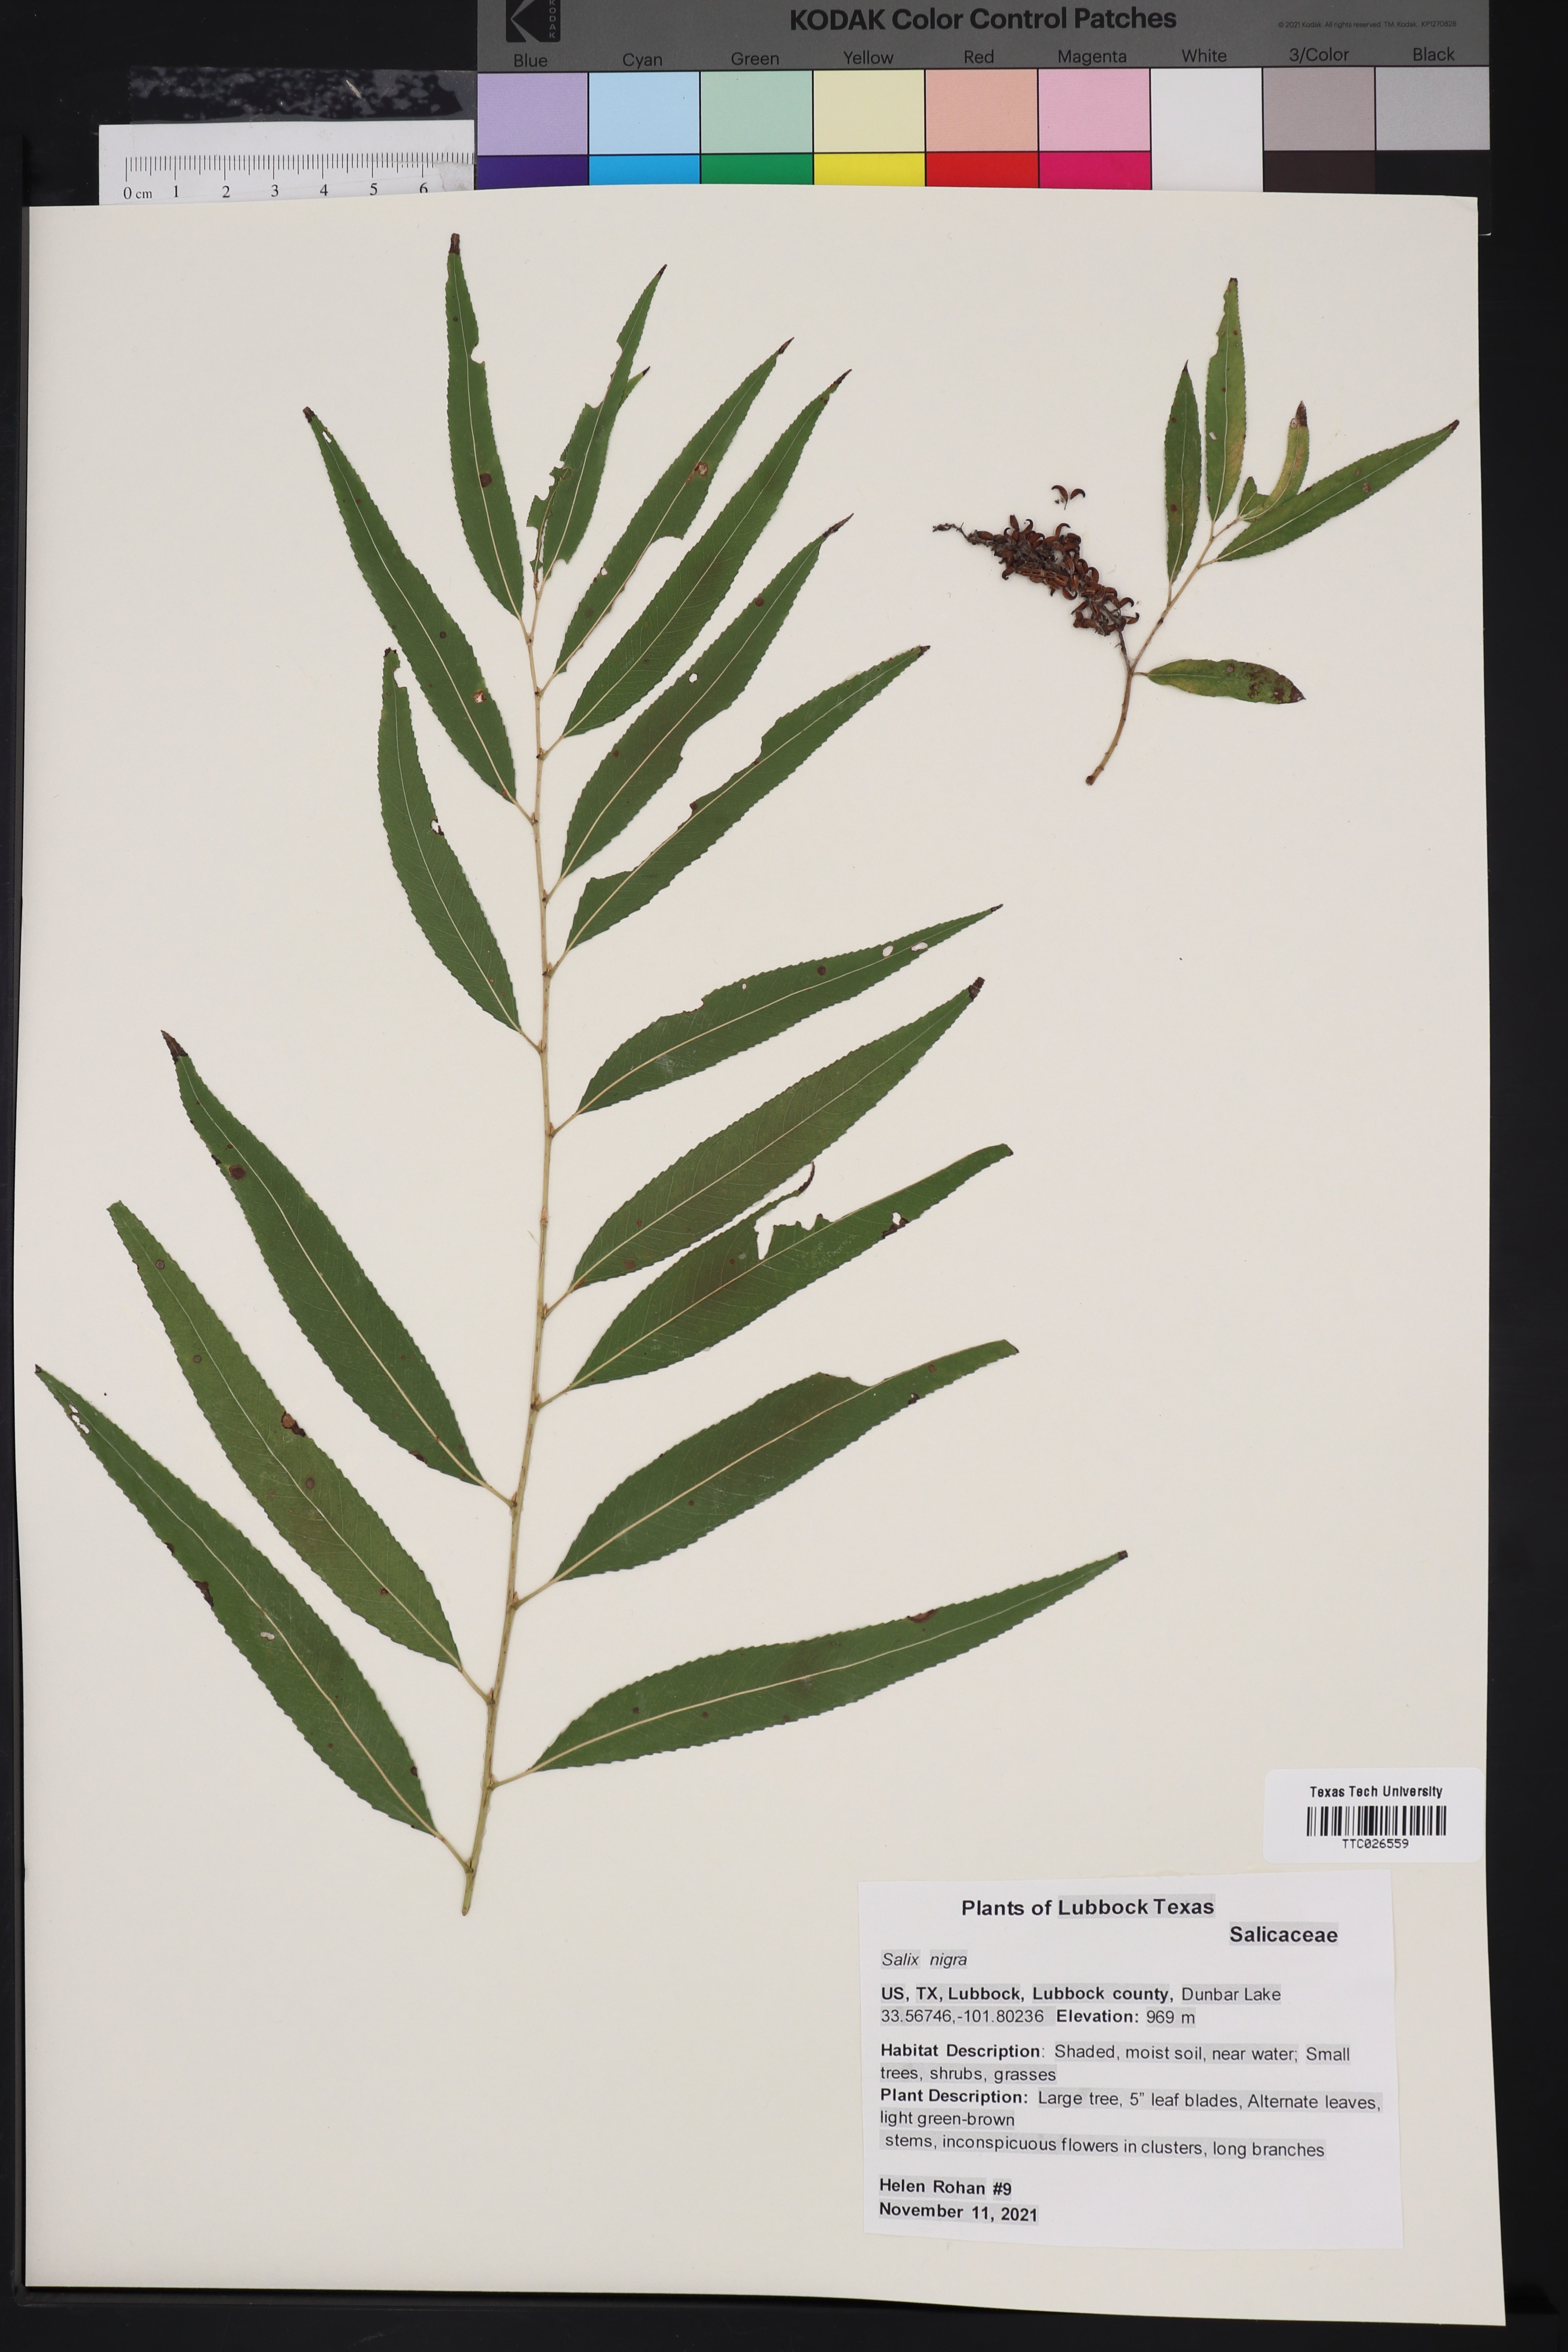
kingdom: Plantae
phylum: Tracheophyta
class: Magnoliopsida
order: Malpighiales
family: Salicaceae
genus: Salix
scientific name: Salix nigra
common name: Black willow
